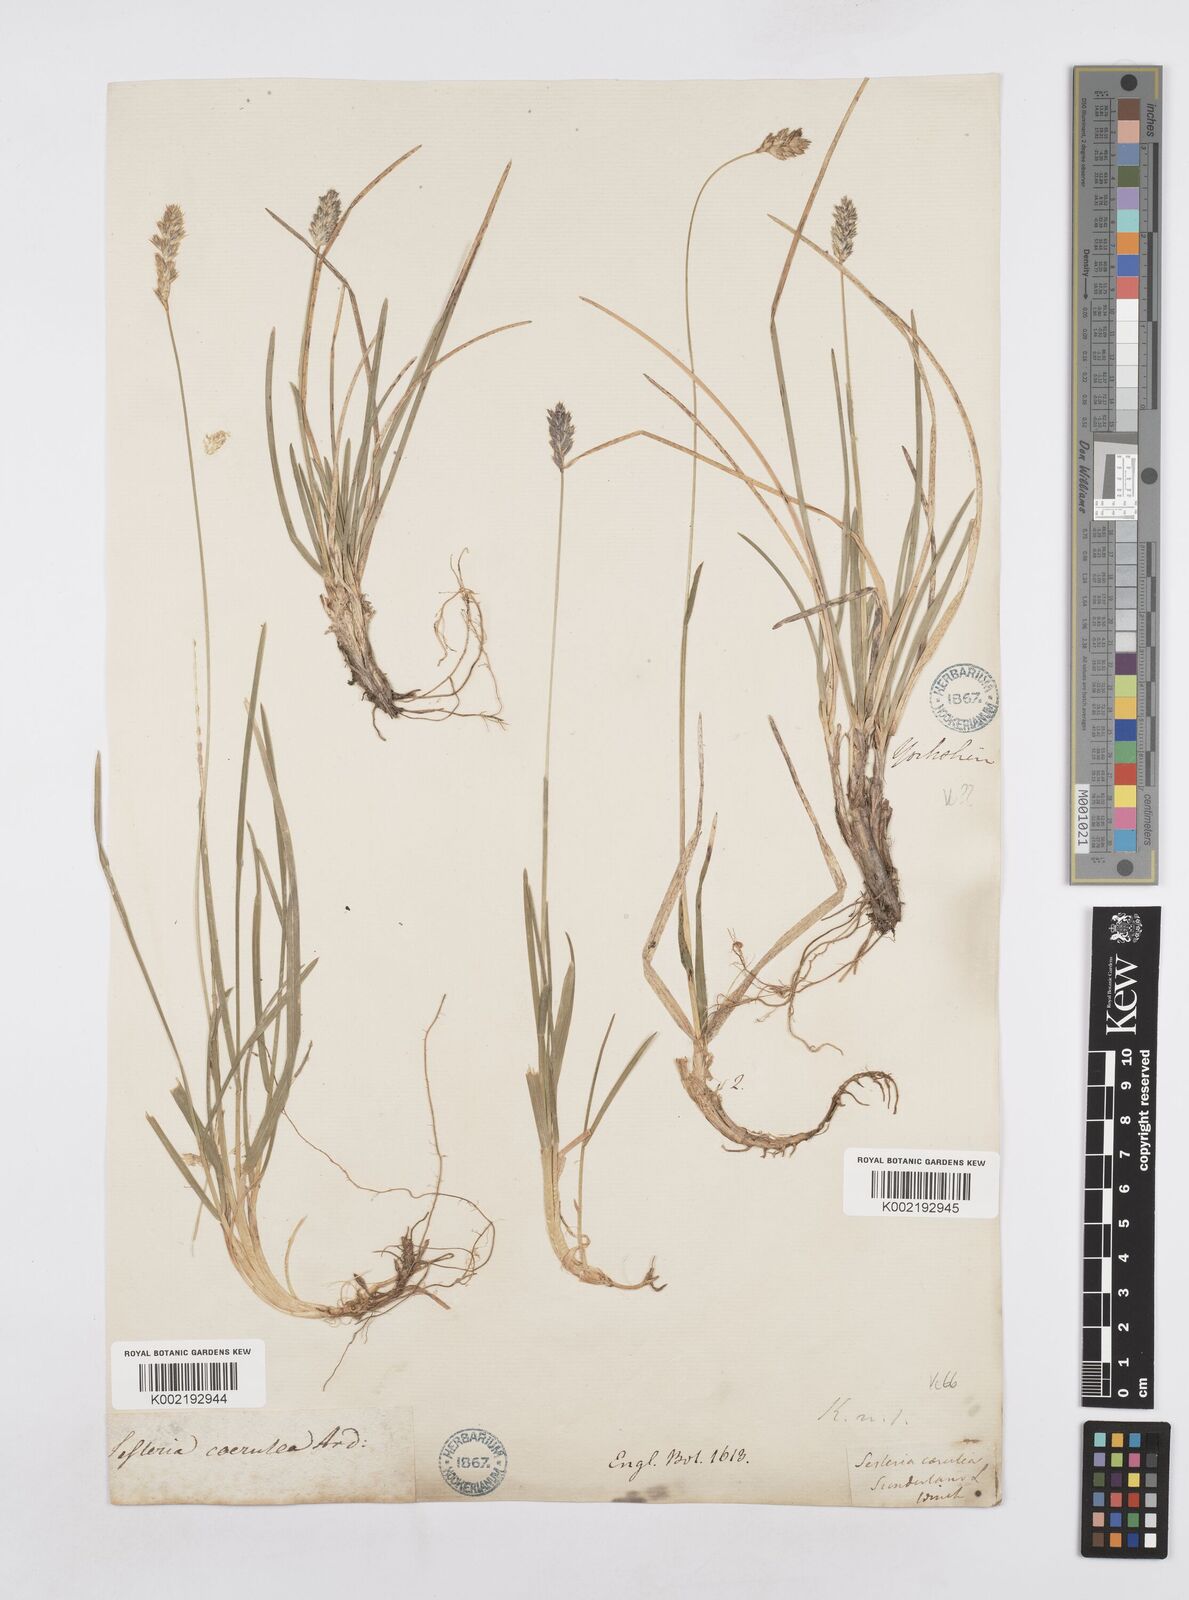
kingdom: Plantae
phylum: Tracheophyta
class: Liliopsida
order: Poales
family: Poaceae
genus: Sesleria
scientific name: Sesleria caerulea
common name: Blue moor-grass
